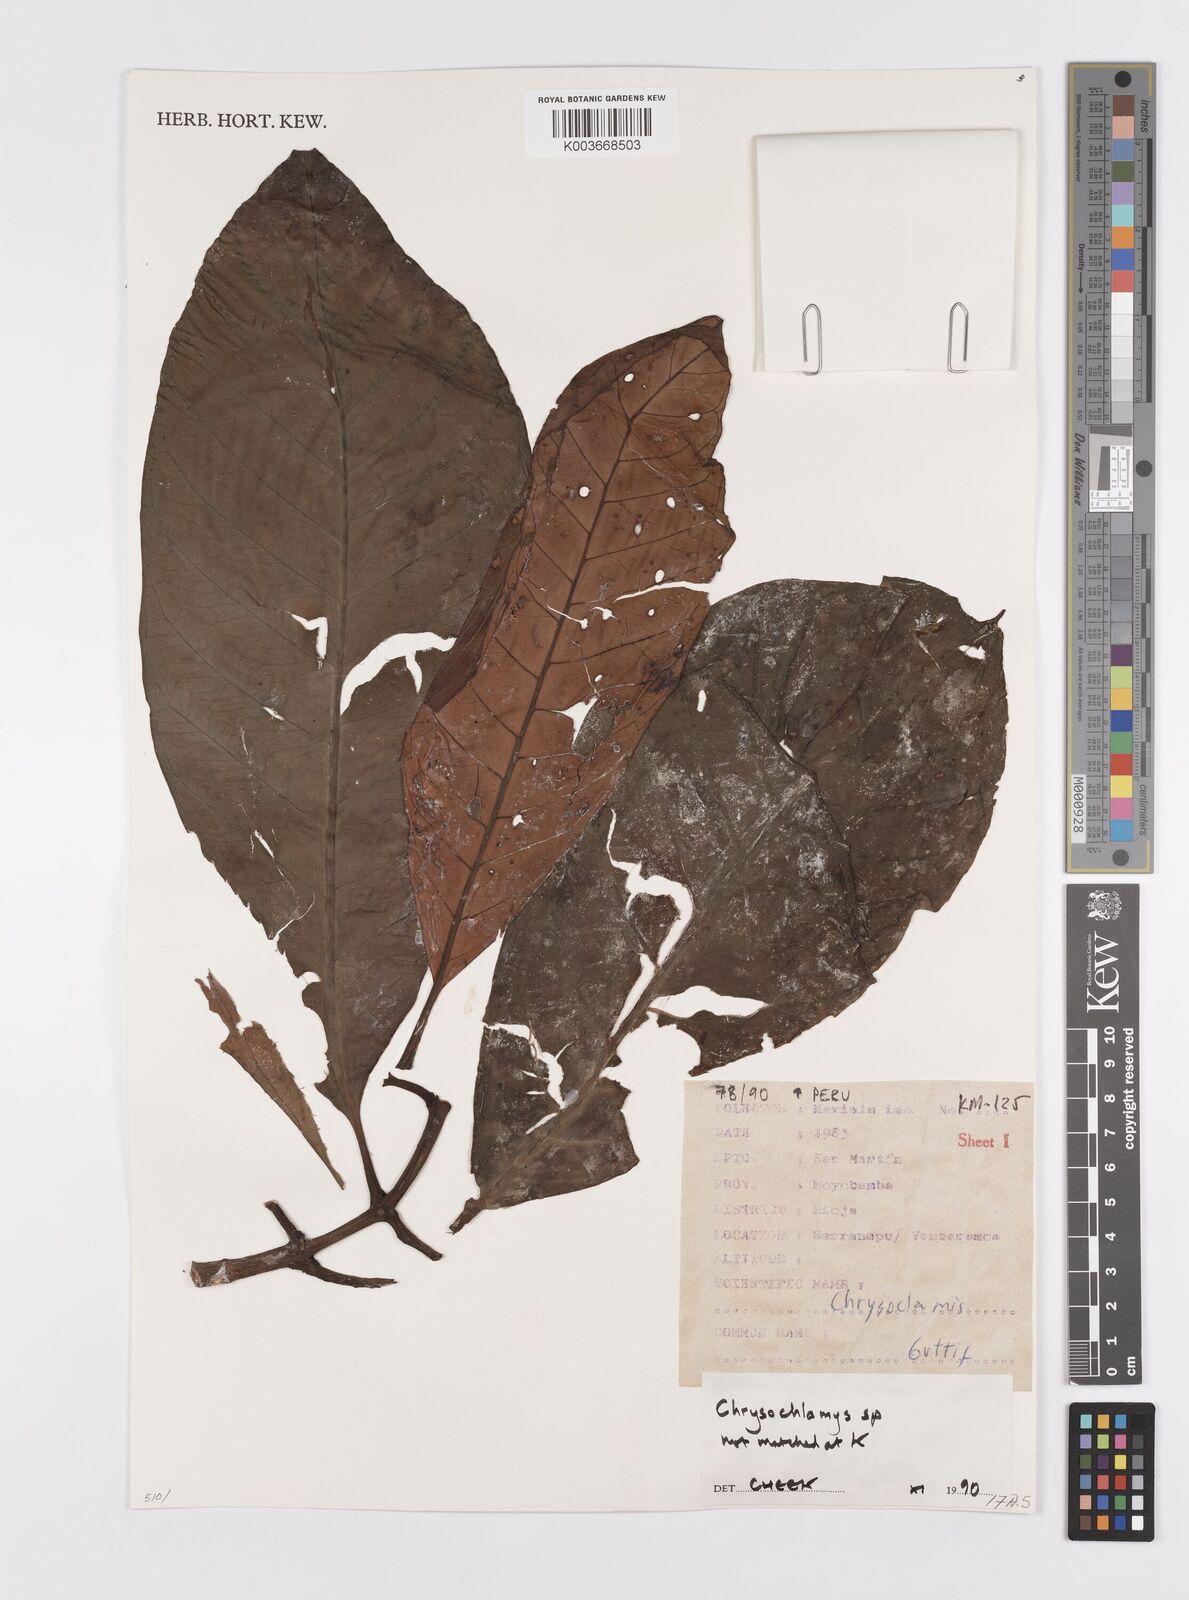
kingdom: Plantae
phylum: Tracheophyta
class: Magnoliopsida
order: Malpighiales
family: Clusiaceae
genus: Chrysochlamys
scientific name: Chrysochlamys
